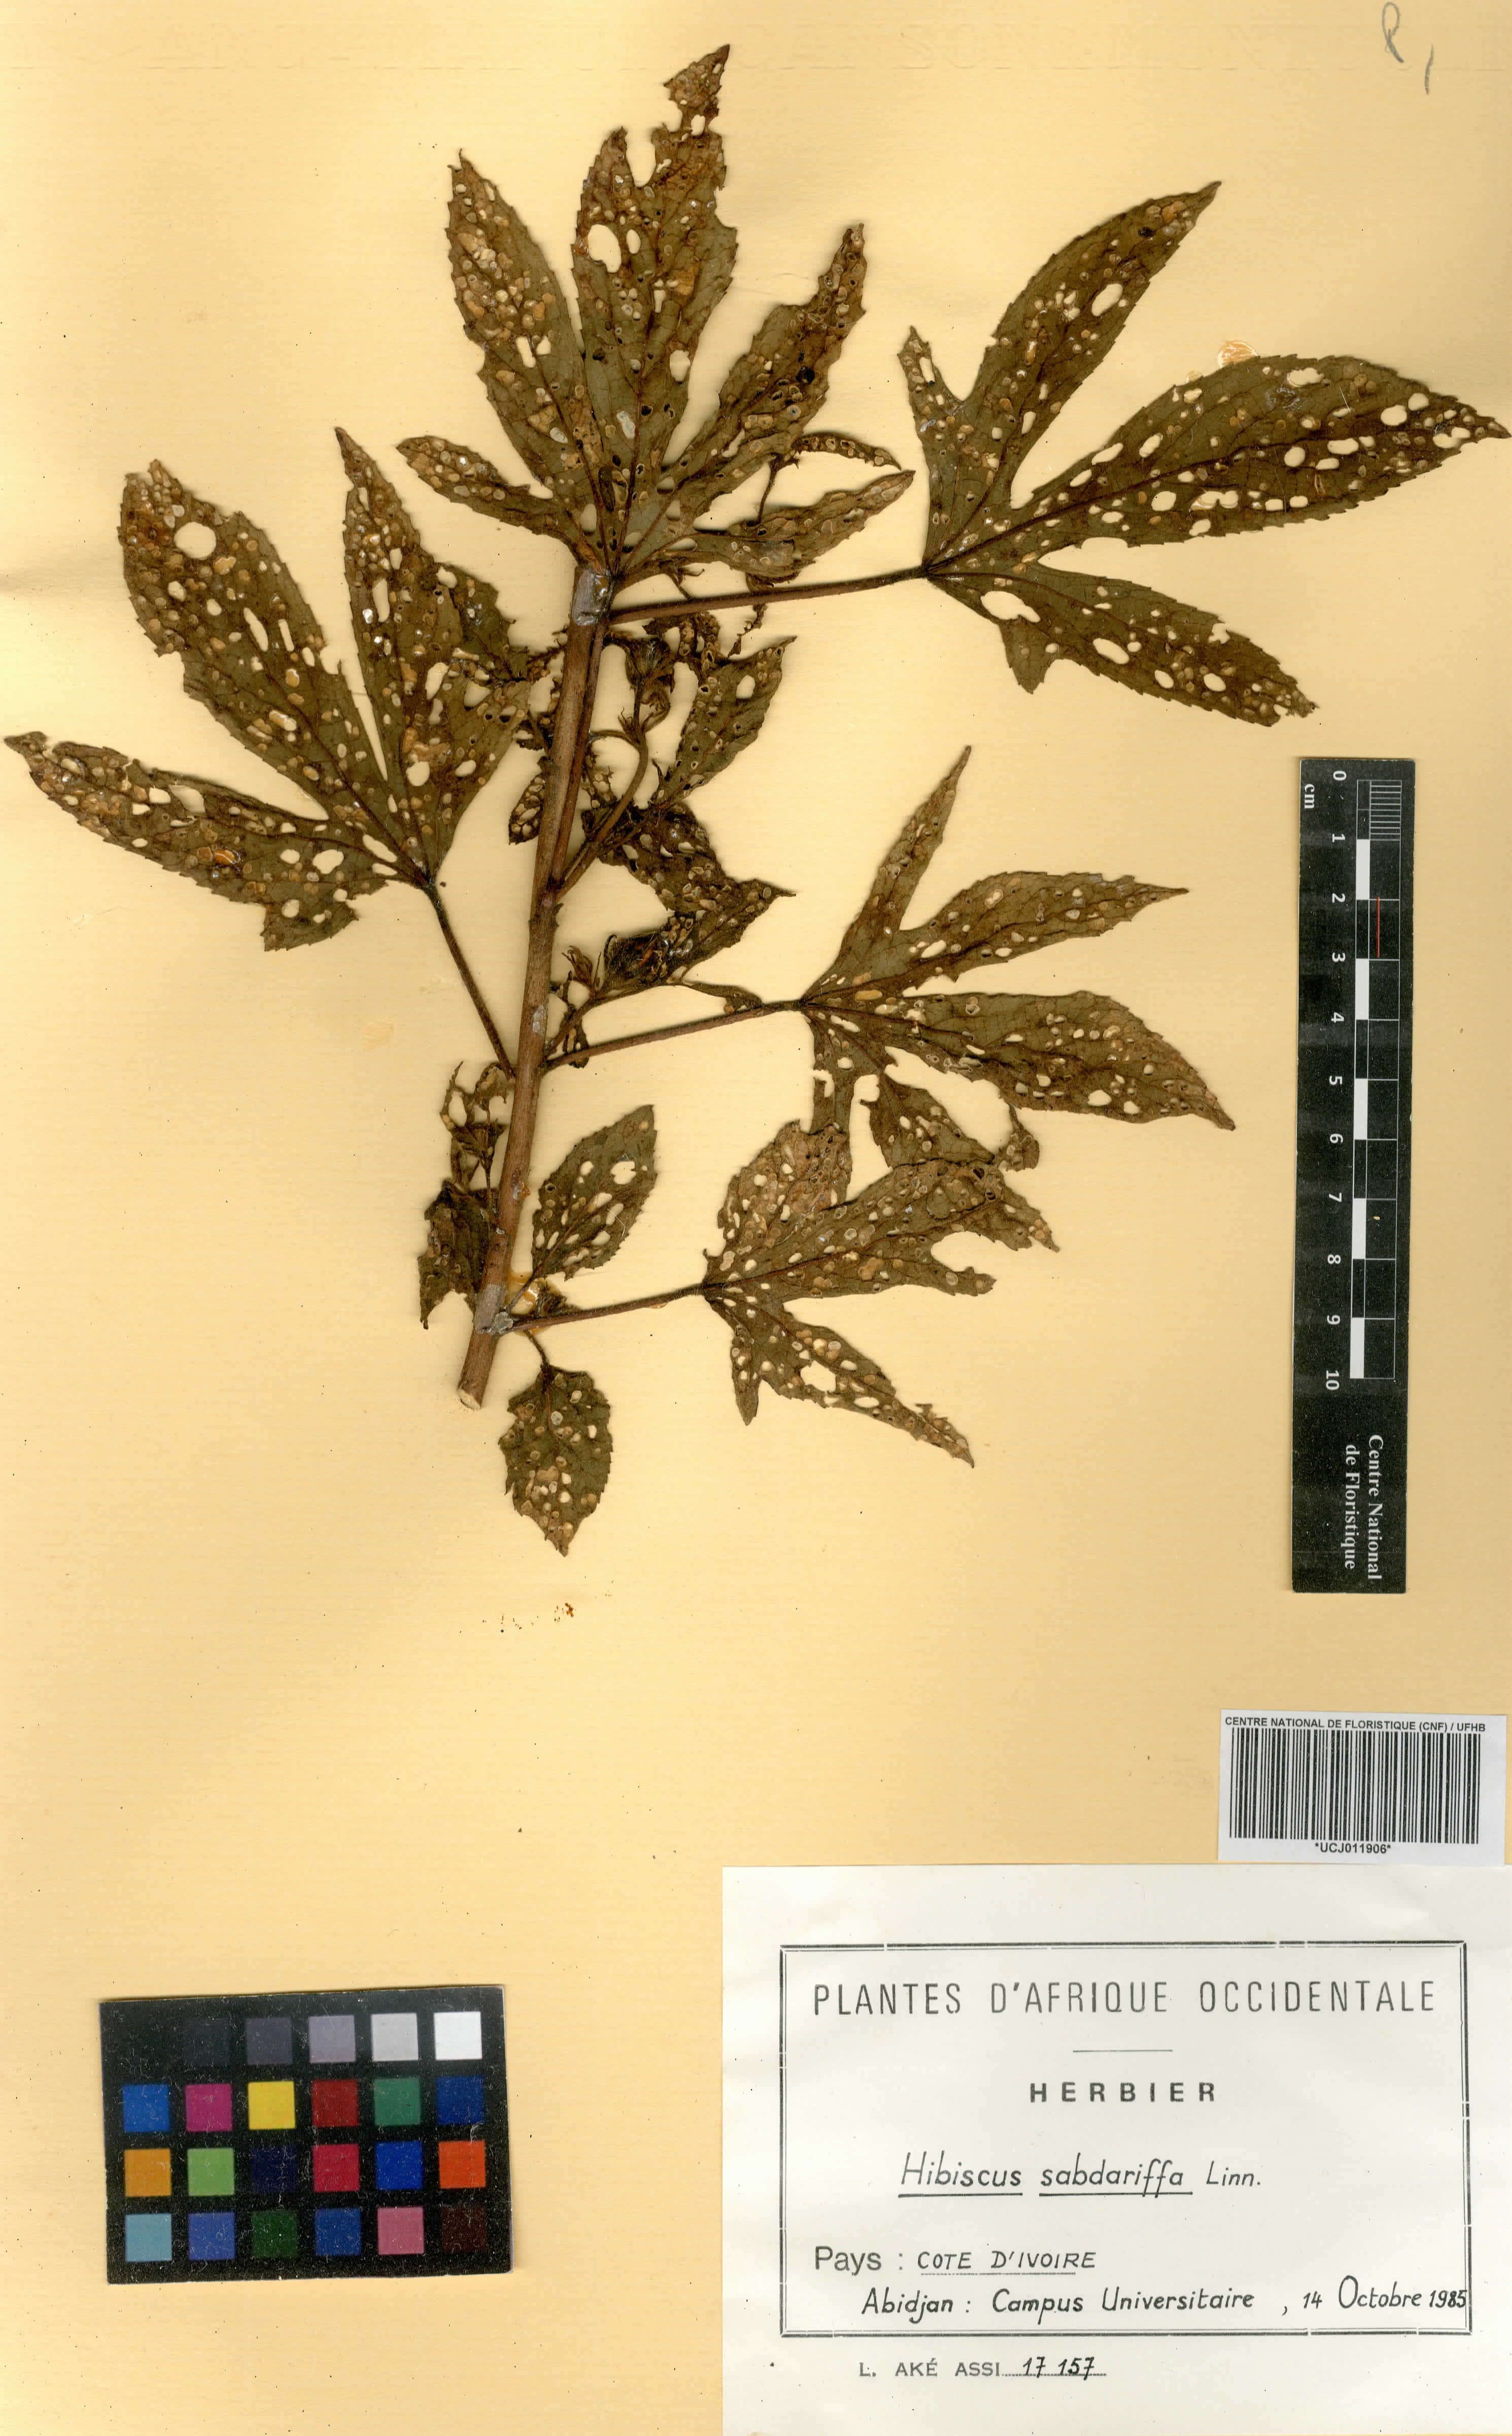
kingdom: Plantae
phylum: Tracheophyta
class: Magnoliopsida
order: Malvales
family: Malvaceae
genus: Hibiscus
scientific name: Hibiscus sabdariffa
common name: Roselle
